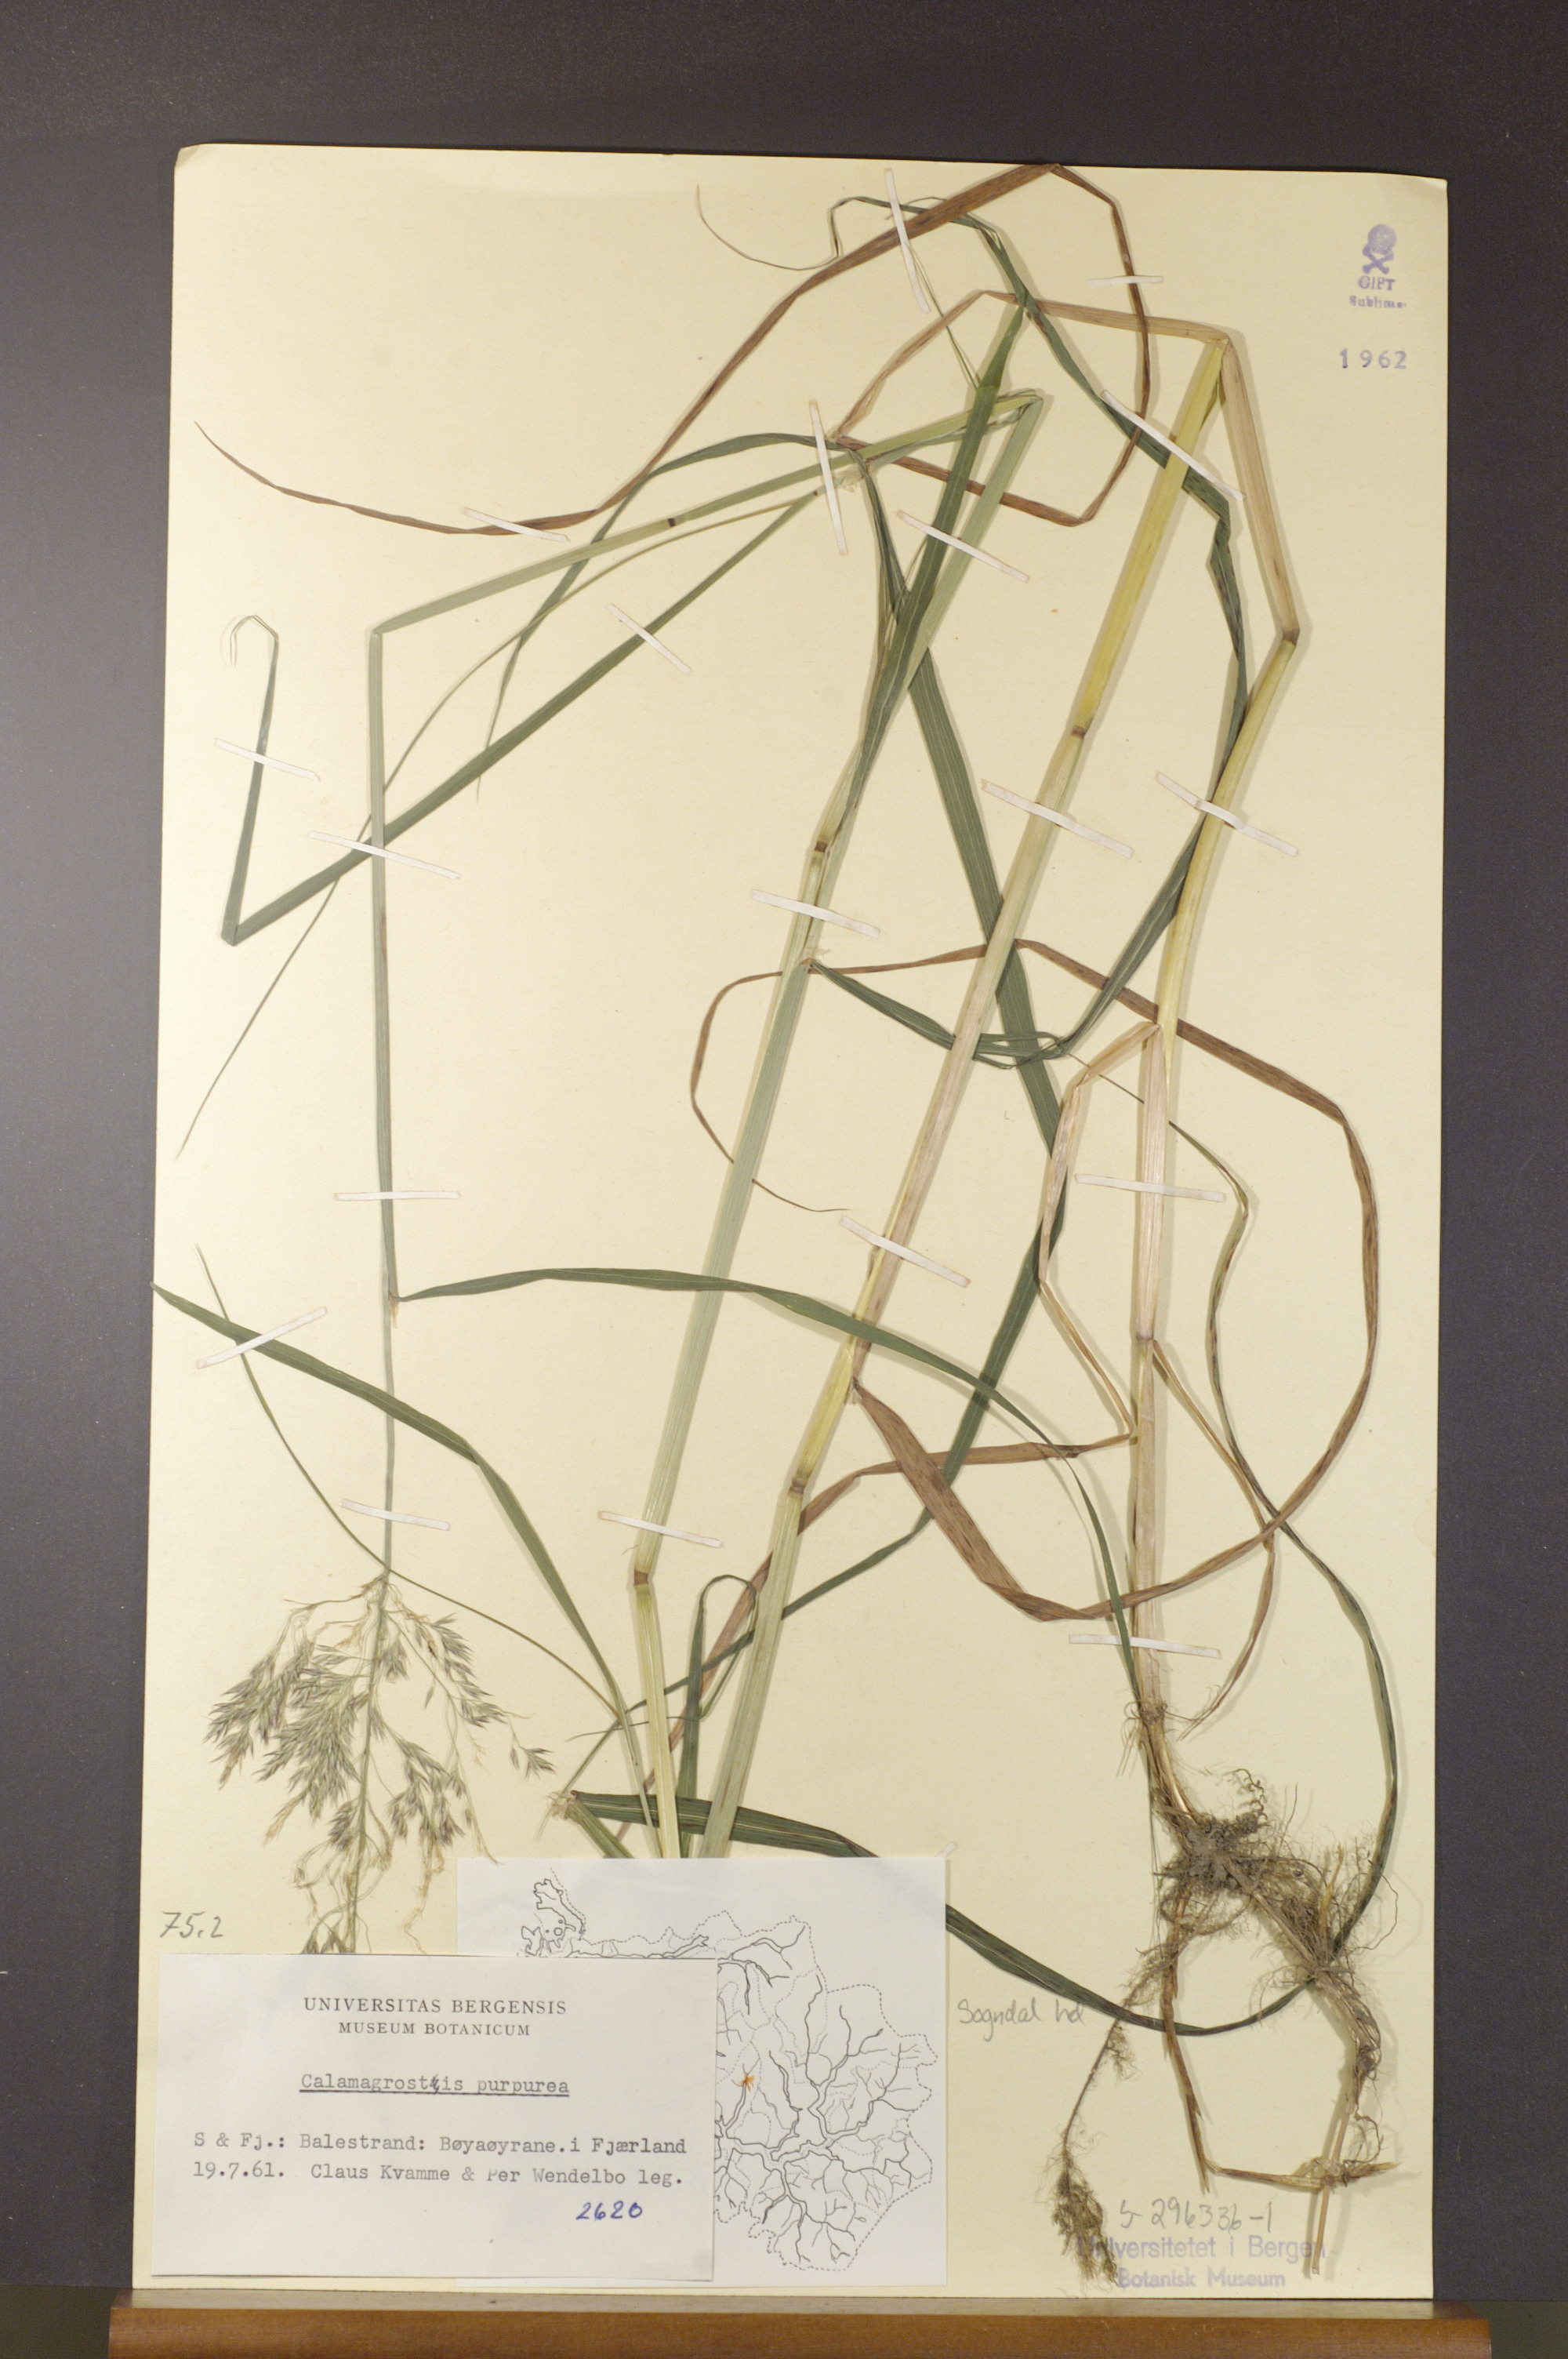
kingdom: Plantae
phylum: Tracheophyta
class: Liliopsida
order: Poales
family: Poaceae
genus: Calamagrostis
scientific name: Calamagrostis purpurea
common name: Scandinavian small-reed
